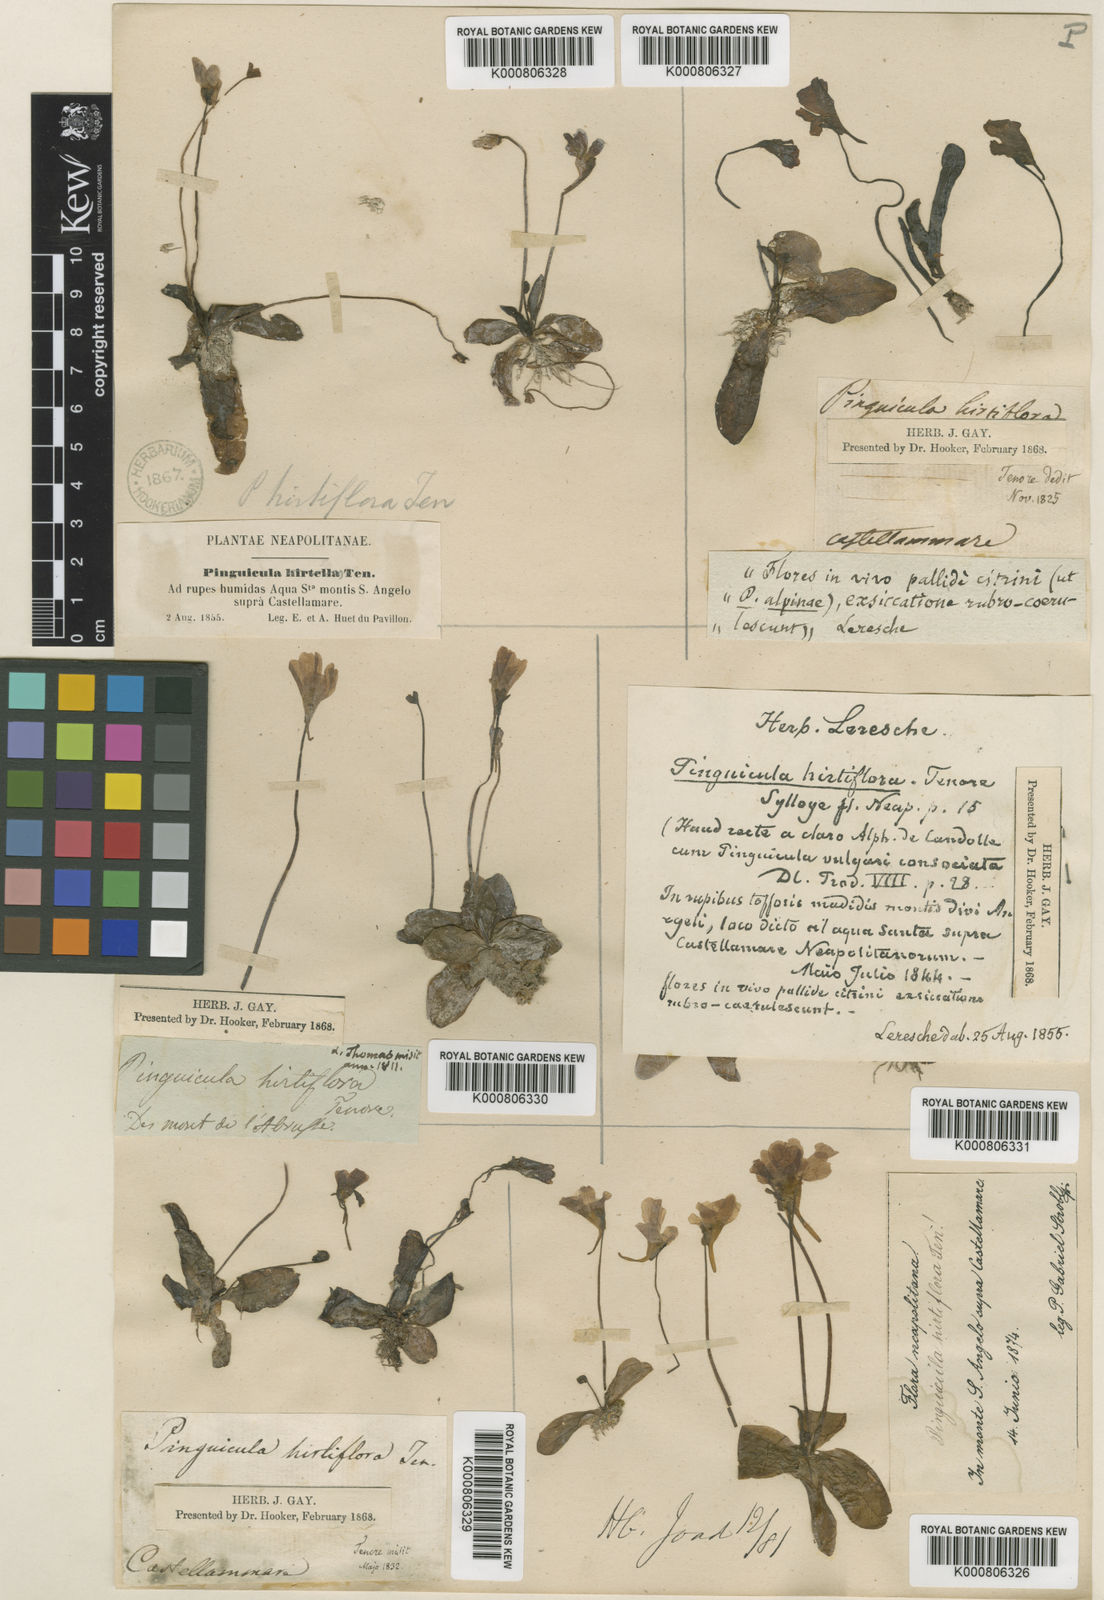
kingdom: Plantae
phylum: Tracheophyta
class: Magnoliopsida
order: Lamiales
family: Lentibulariaceae
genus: Pinguicula
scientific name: Pinguicula crystallina
